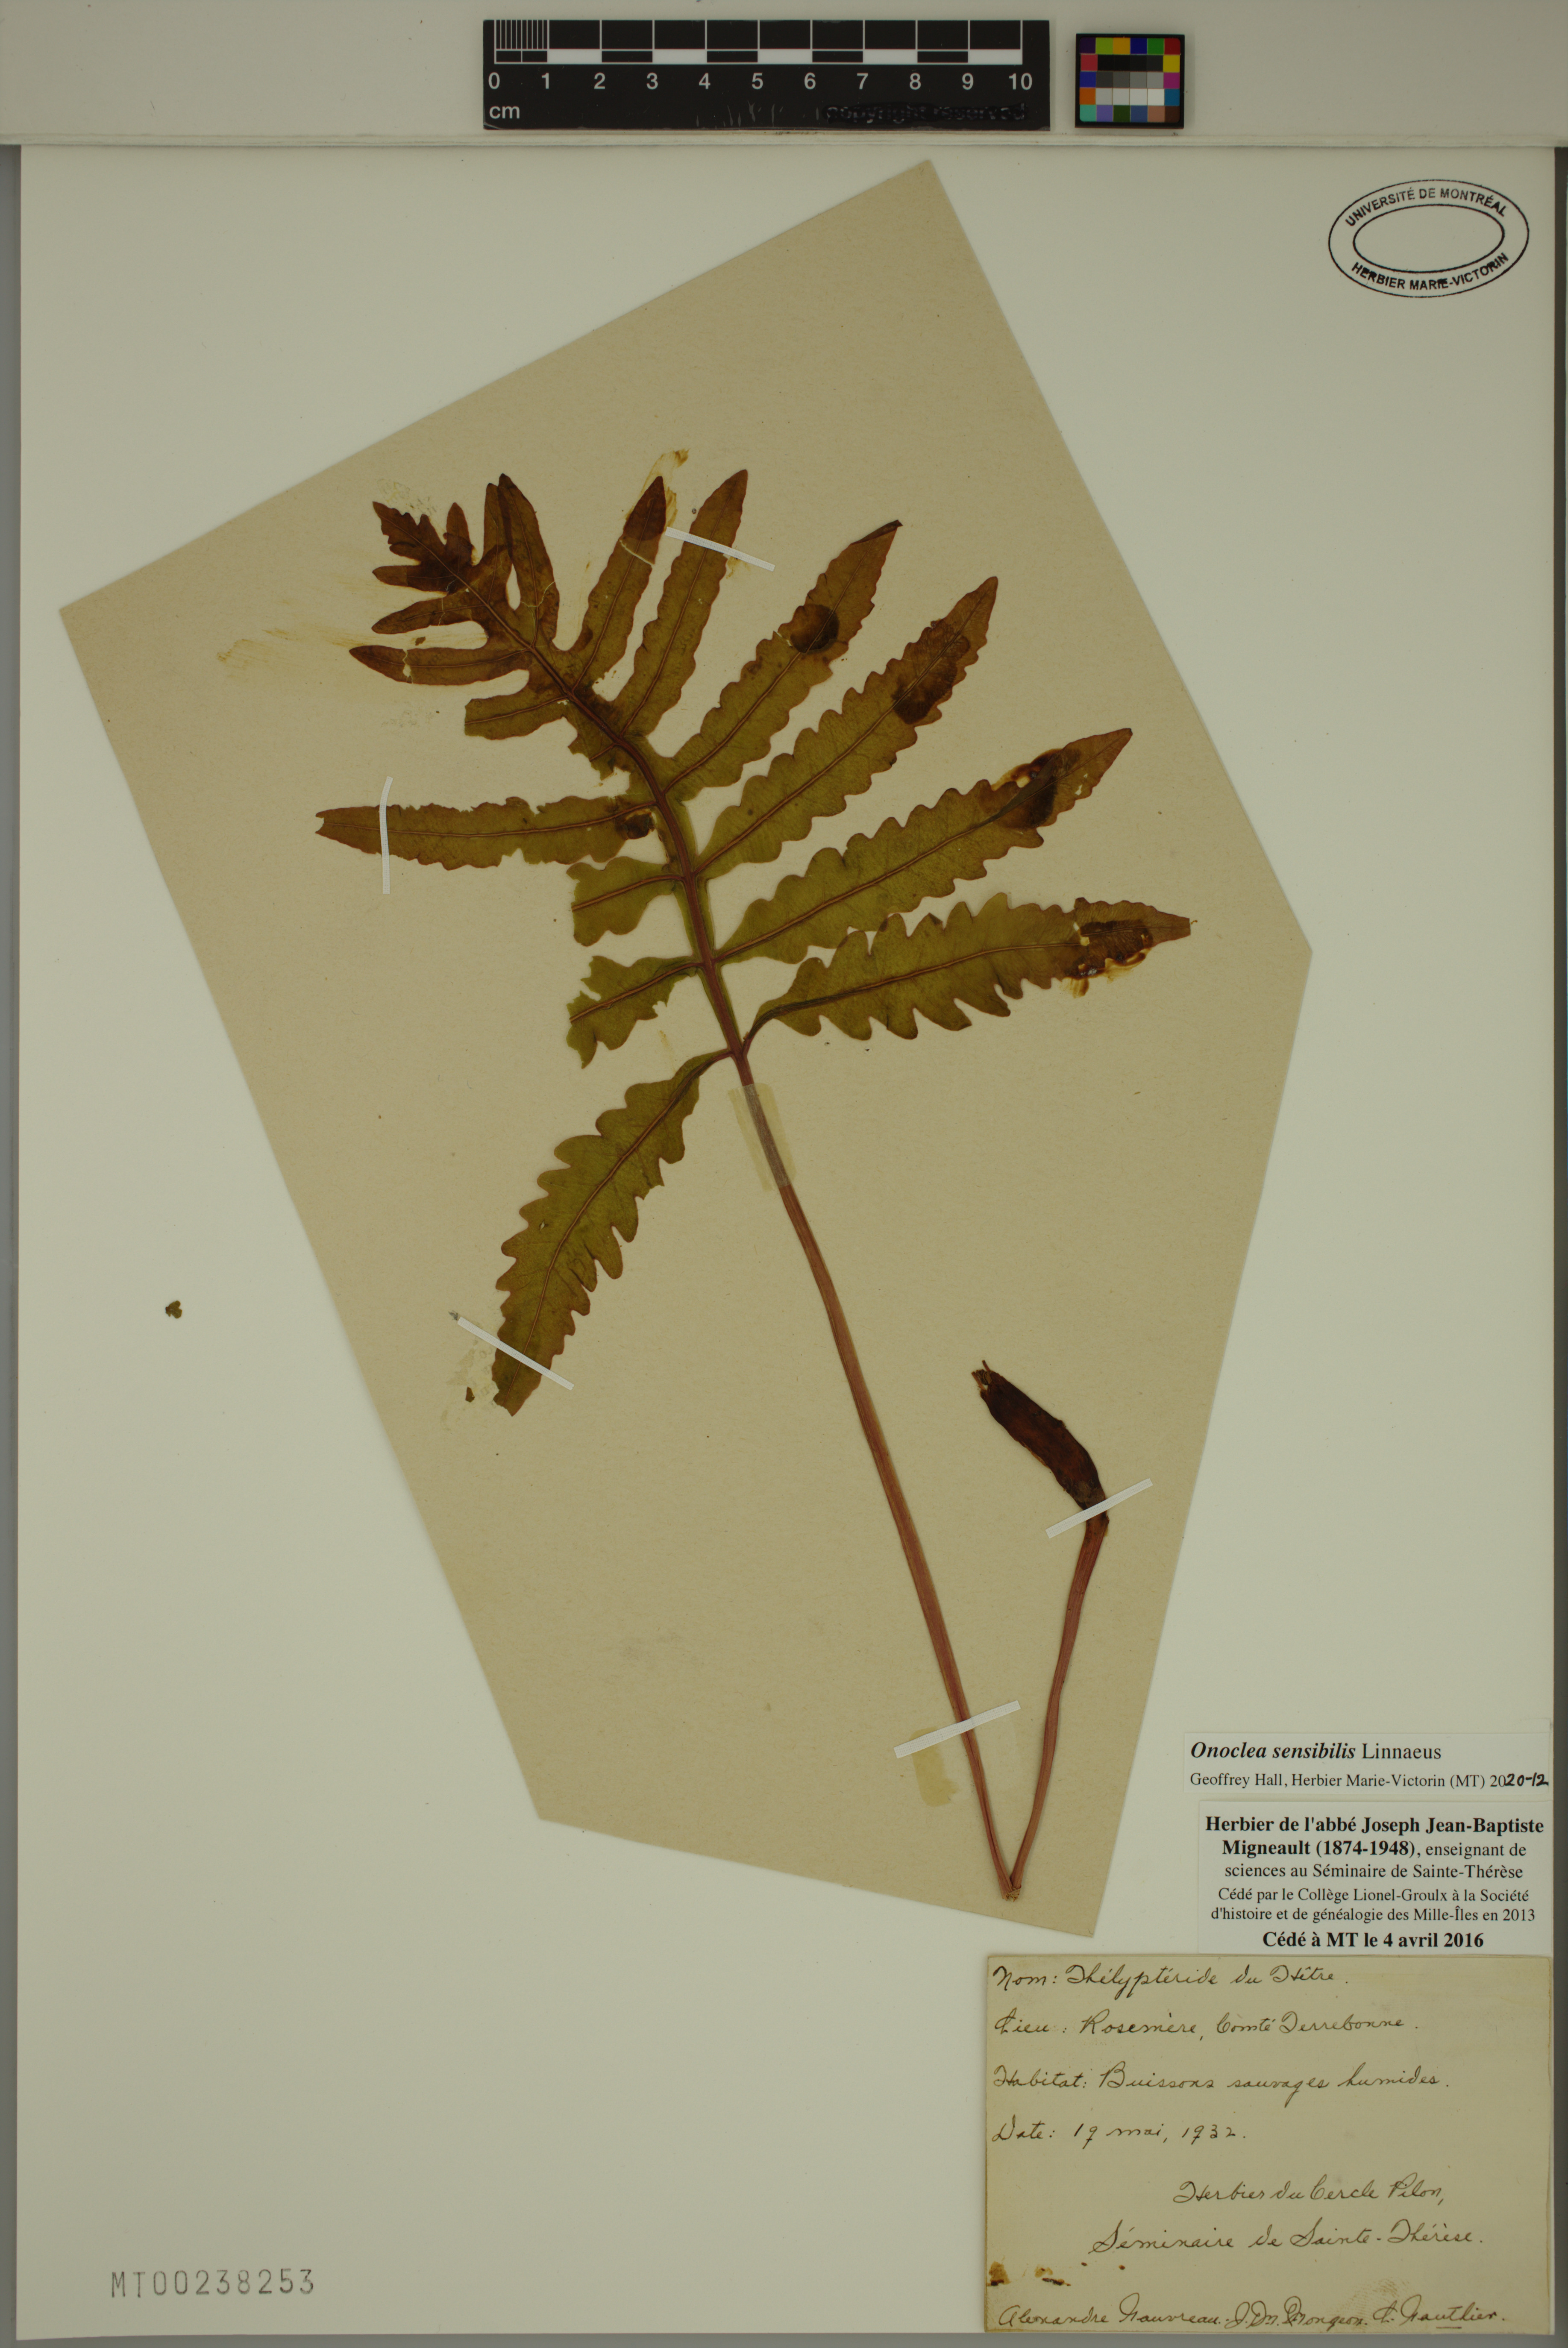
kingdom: Plantae
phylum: Tracheophyta
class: Polypodiopsida
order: Polypodiales
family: Onocleaceae
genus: Onoclea
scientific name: Onoclea sensibilis
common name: Sensitive fern
